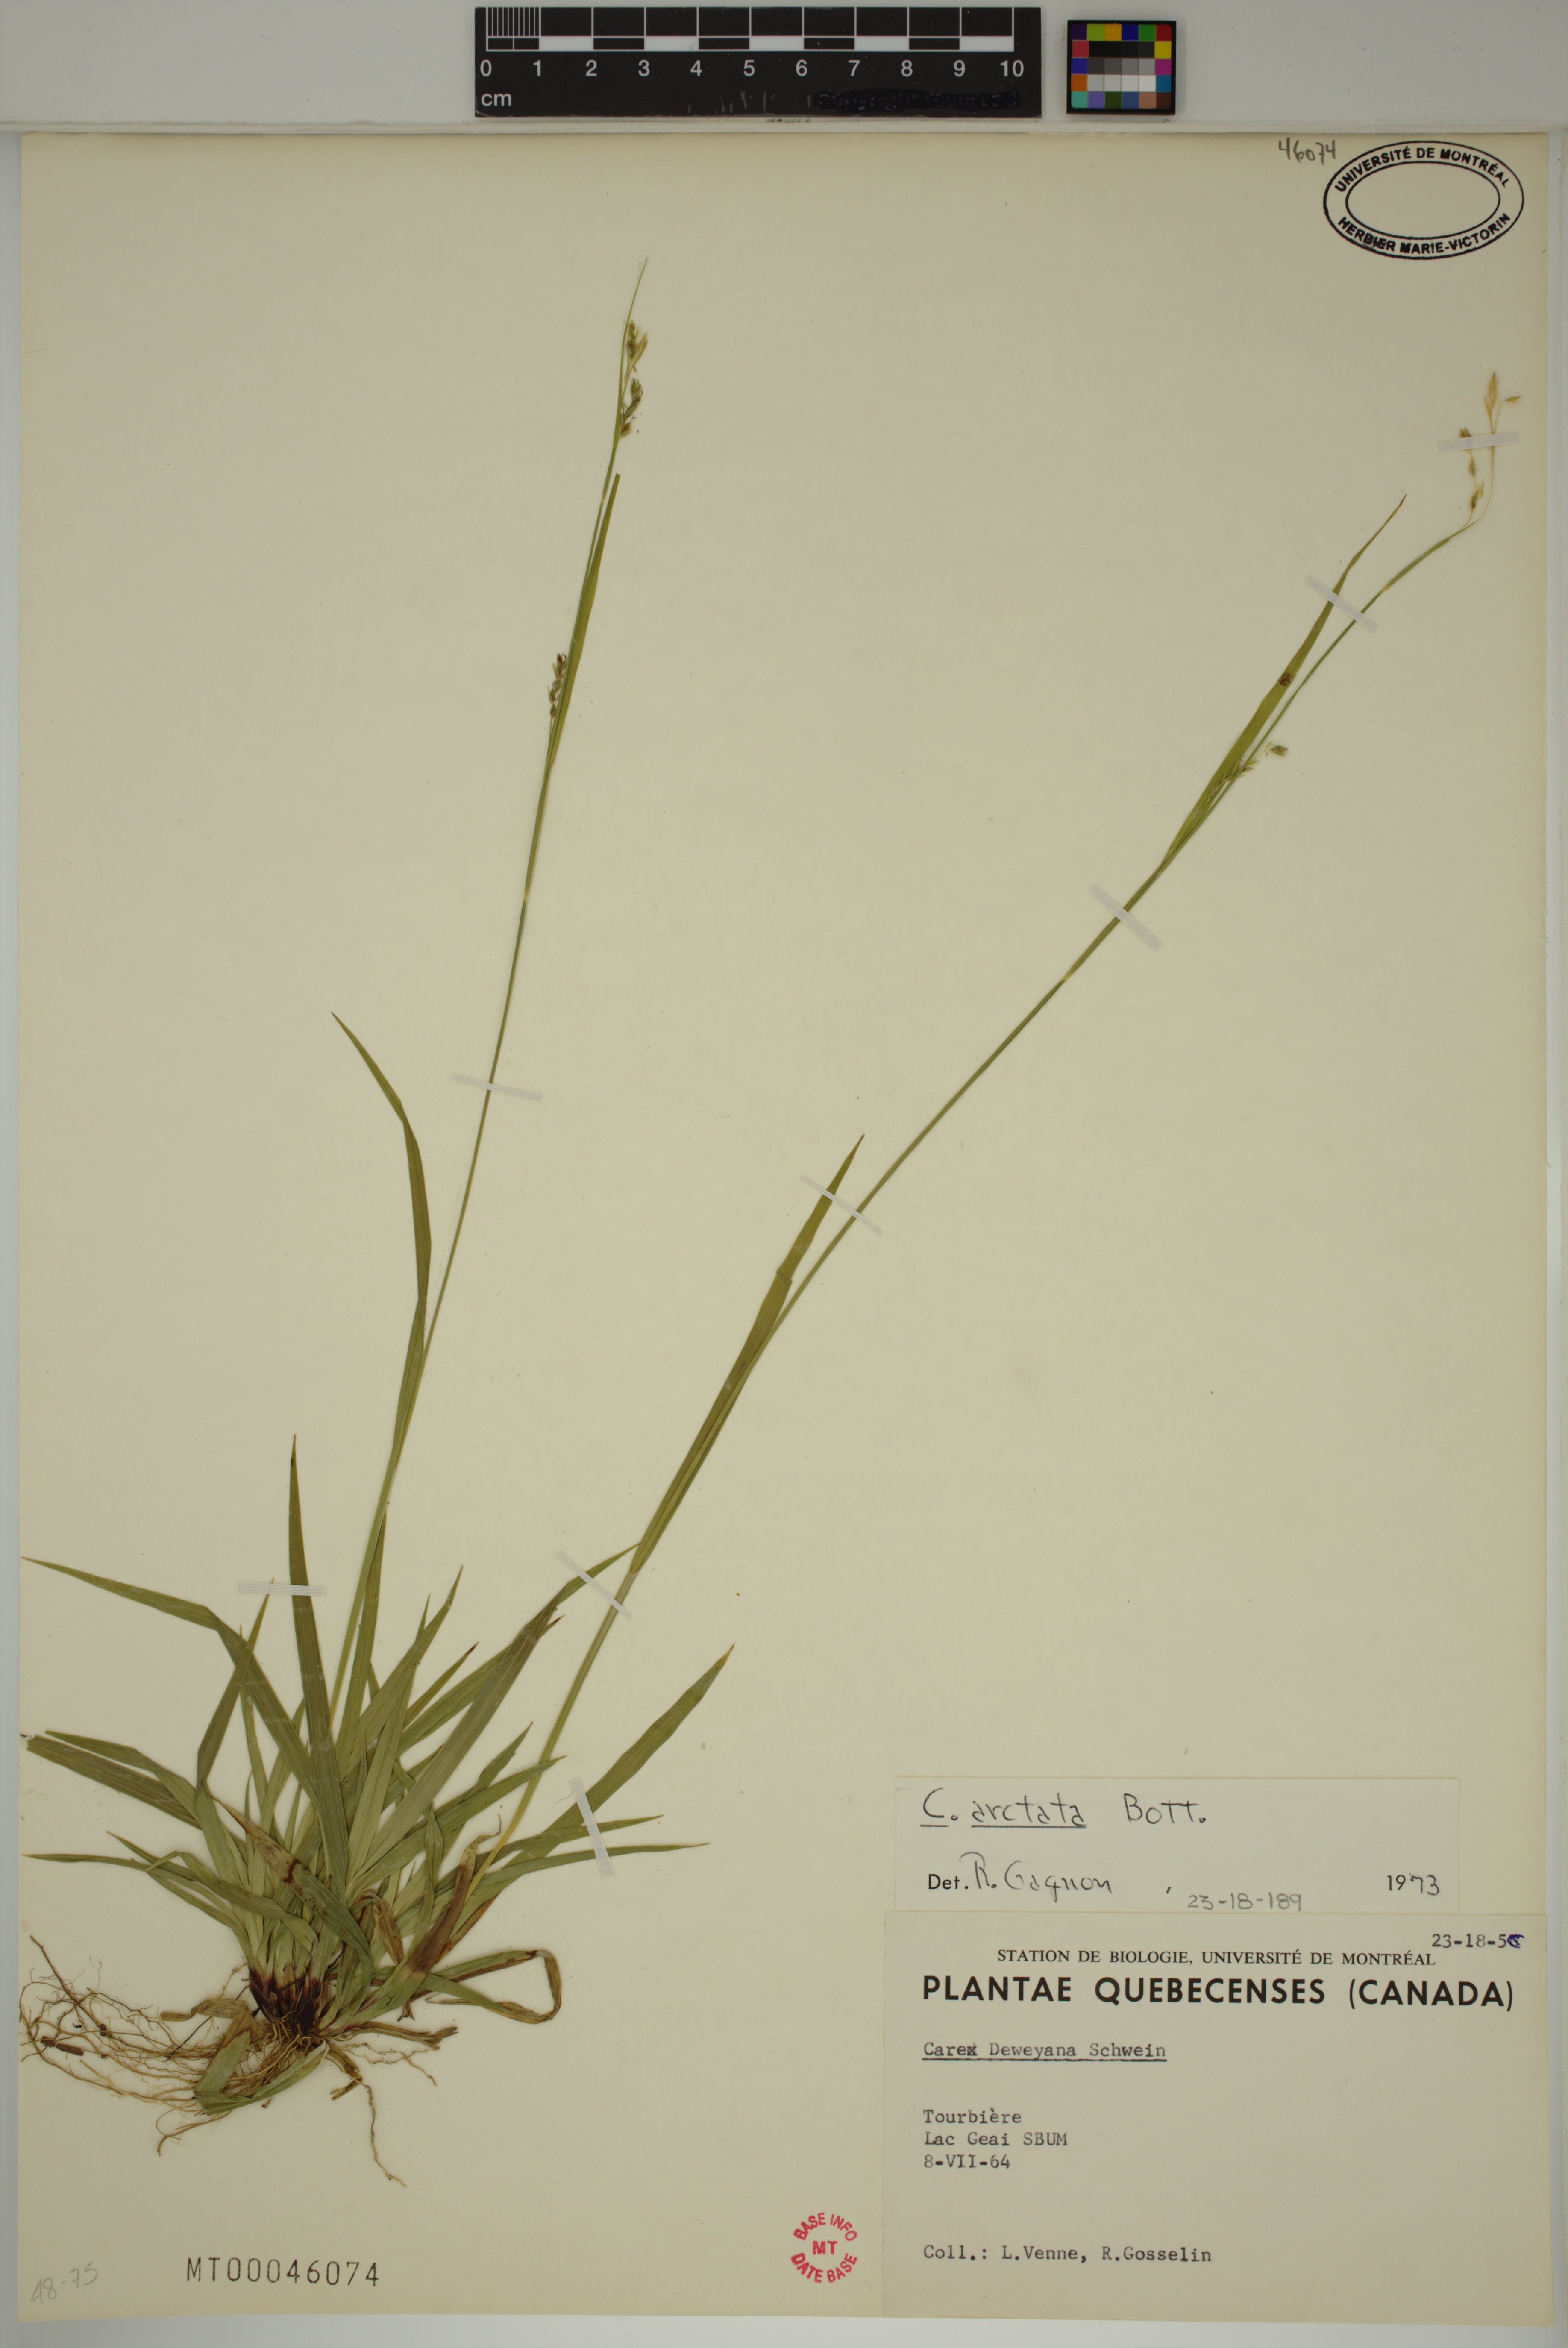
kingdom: Plantae
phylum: Tracheophyta
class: Liliopsida
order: Poales
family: Cyperaceae
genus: Carex
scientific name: Carex arctata
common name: Black sedge
